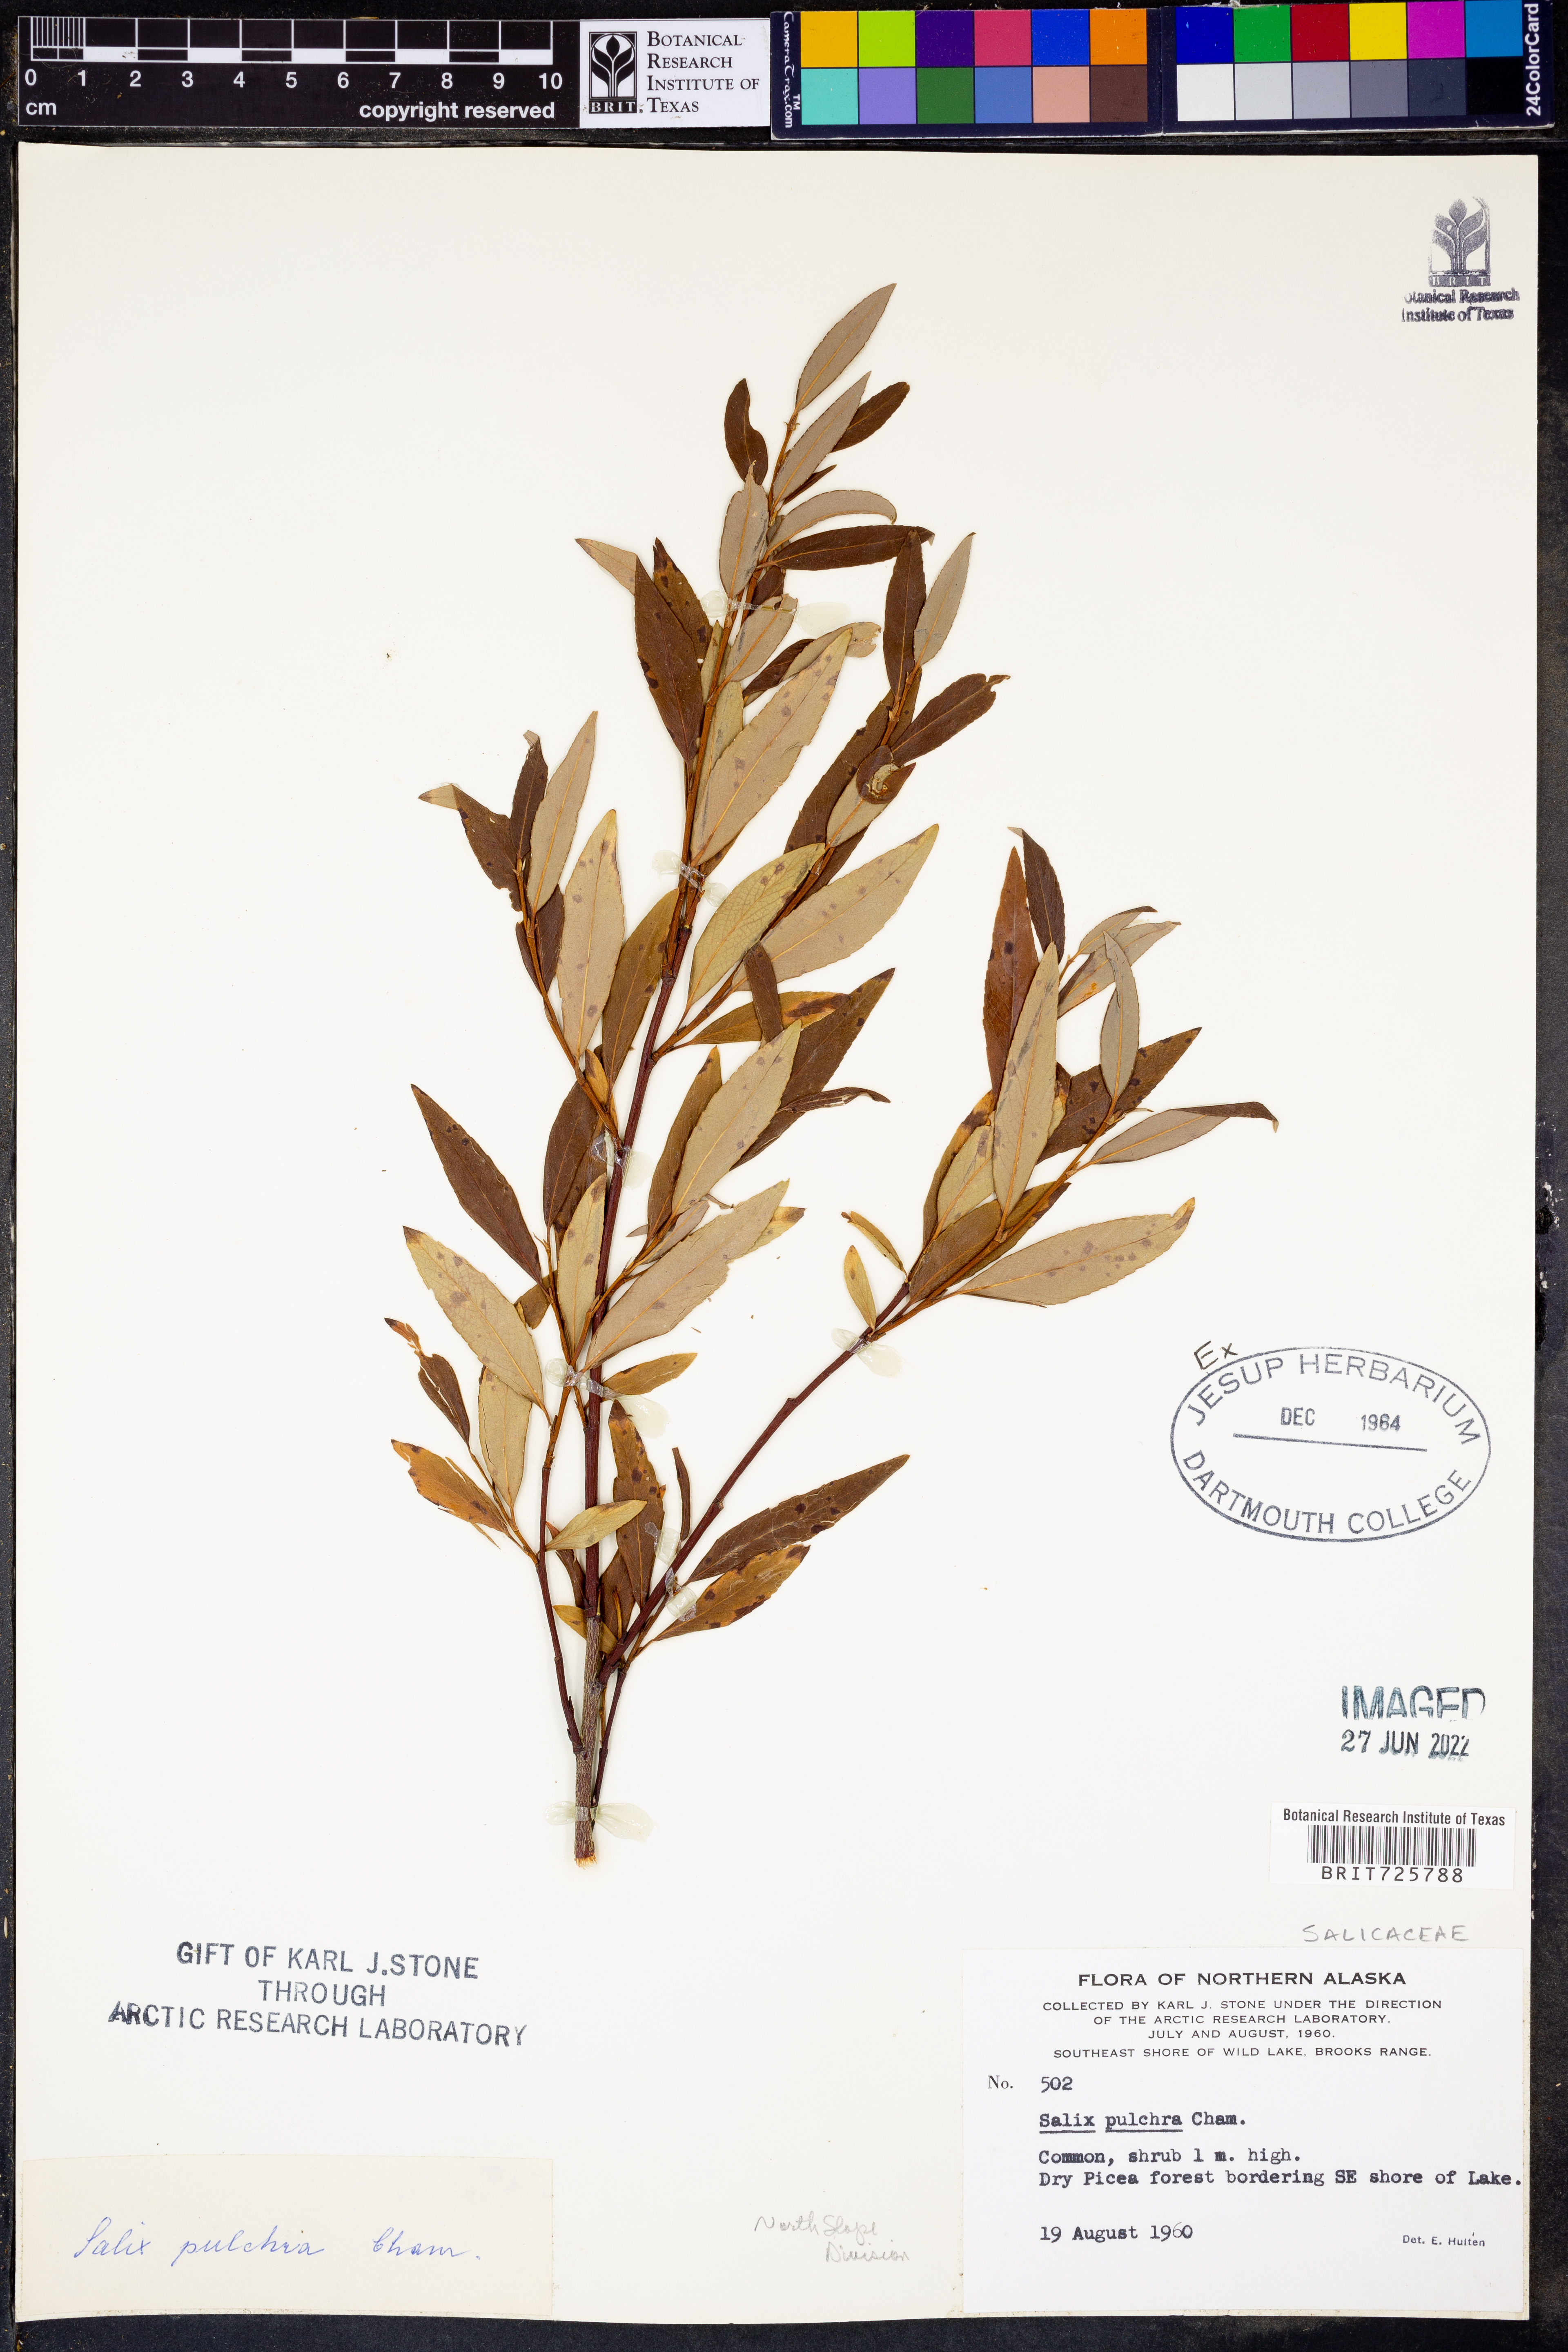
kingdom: Plantae
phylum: Tracheophyta
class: Magnoliopsida
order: Malpighiales
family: Salicaceae
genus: Salix
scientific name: Salix
